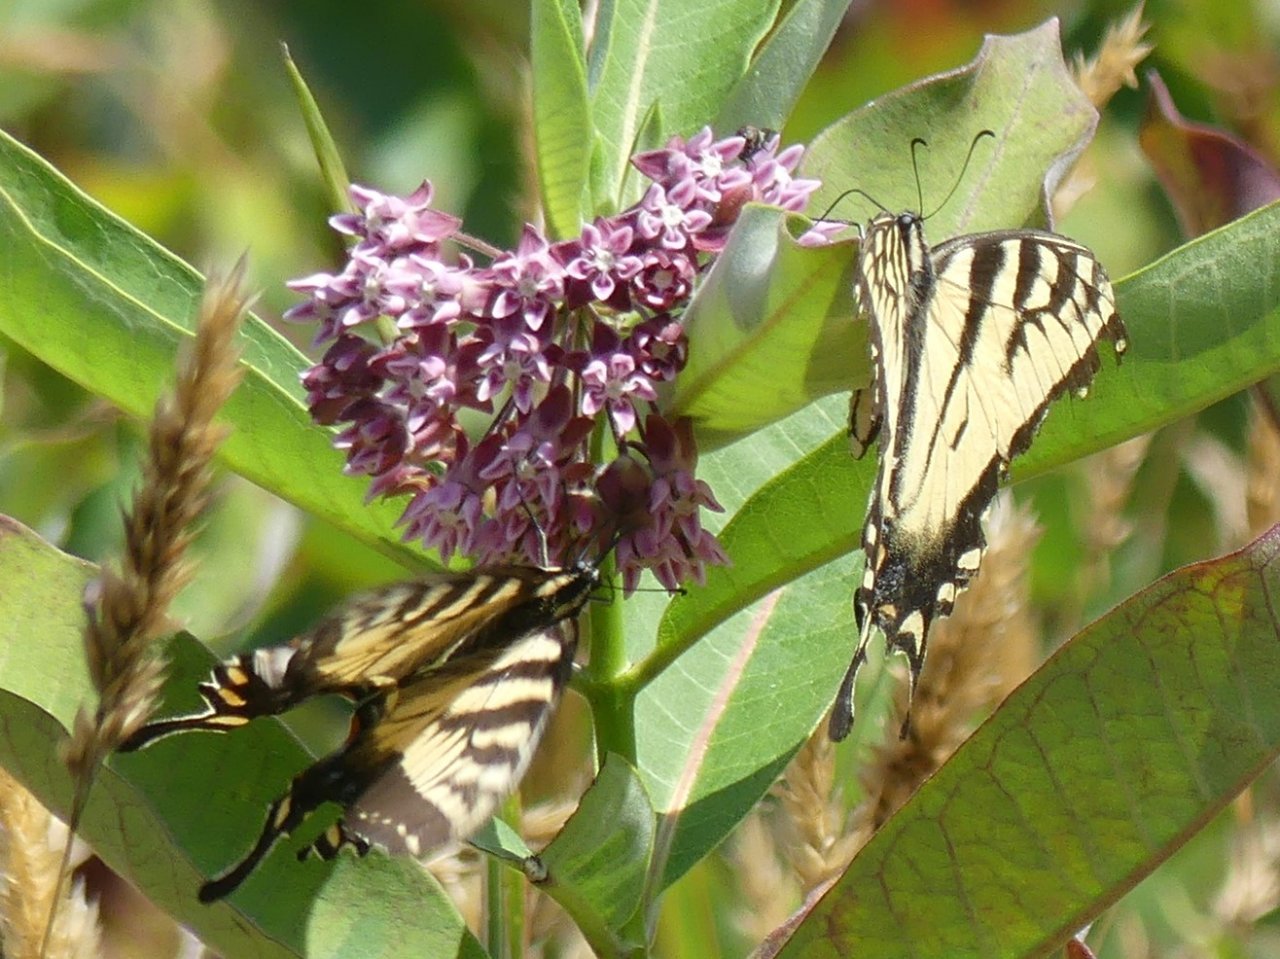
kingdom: Animalia
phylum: Arthropoda
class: Insecta
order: Lepidoptera
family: Papilionidae
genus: Pterourus
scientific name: Pterourus glaucus
